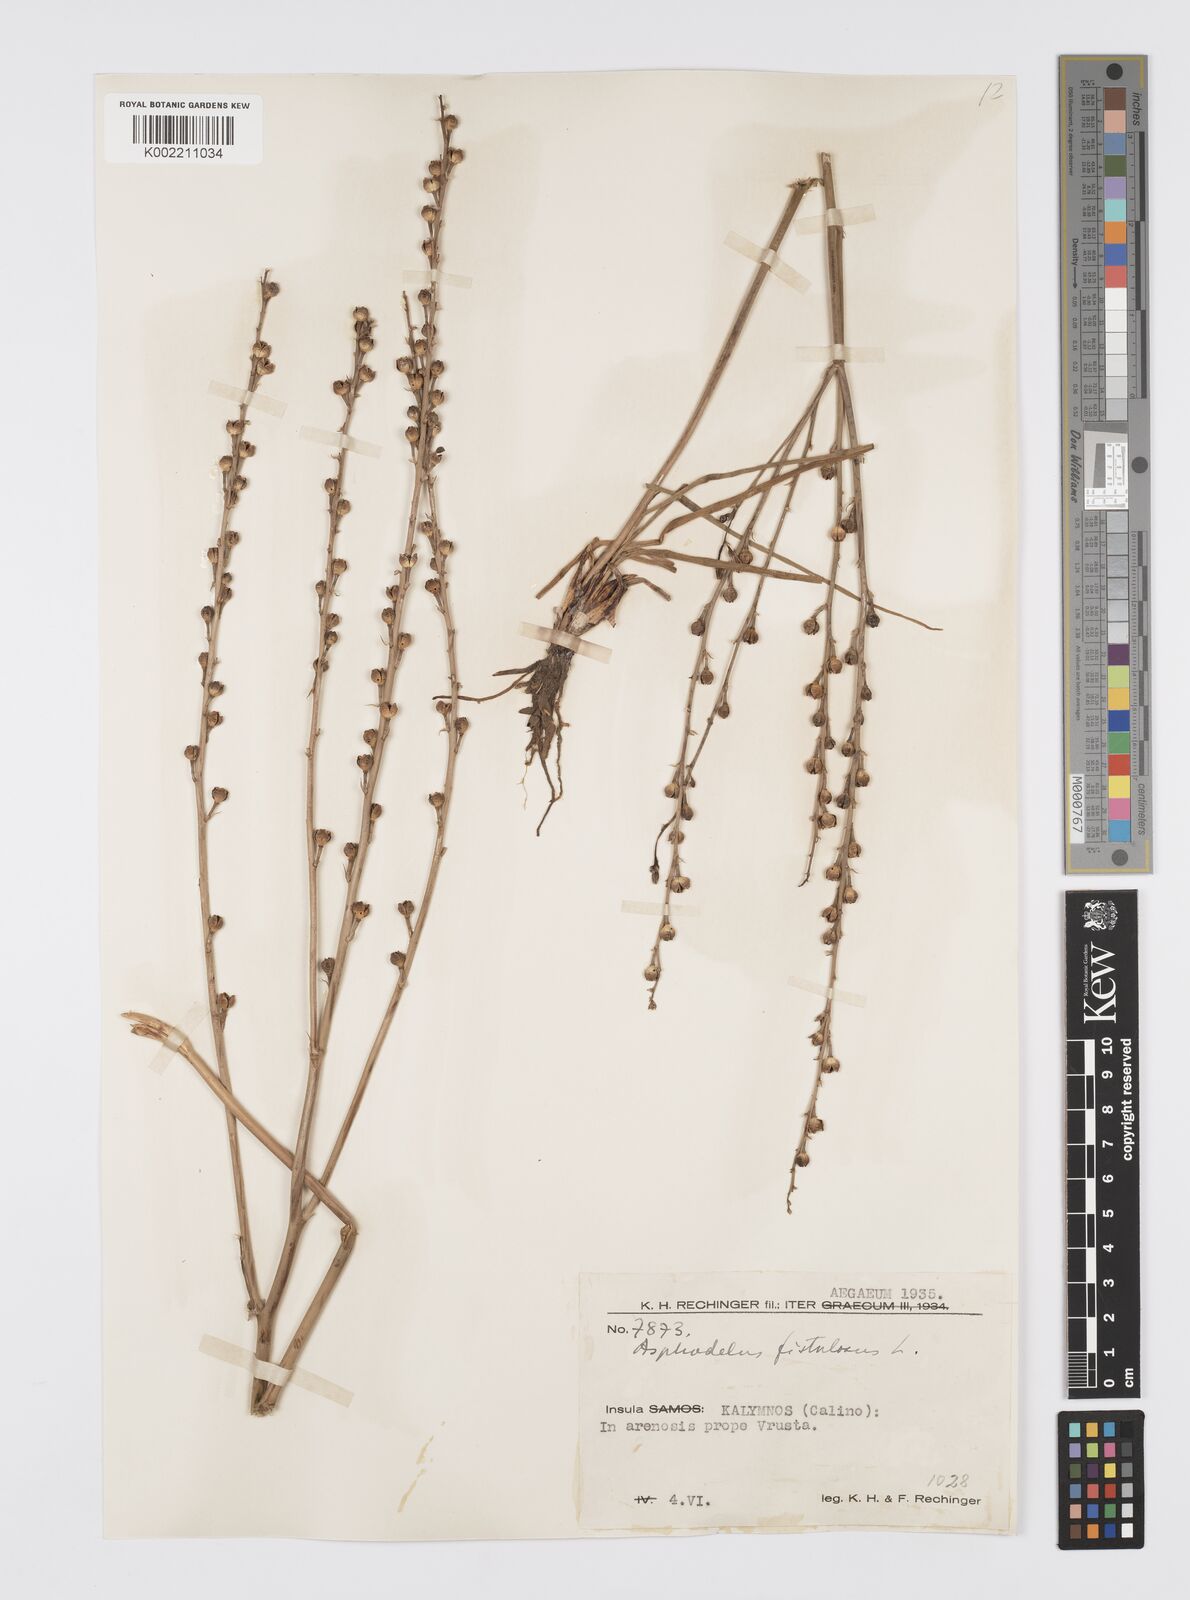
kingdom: Plantae
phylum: Tracheophyta
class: Liliopsida
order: Asparagales
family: Asphodelaceae
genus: Asphodelus
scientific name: Asphodelus fistulosus
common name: Onionweed
